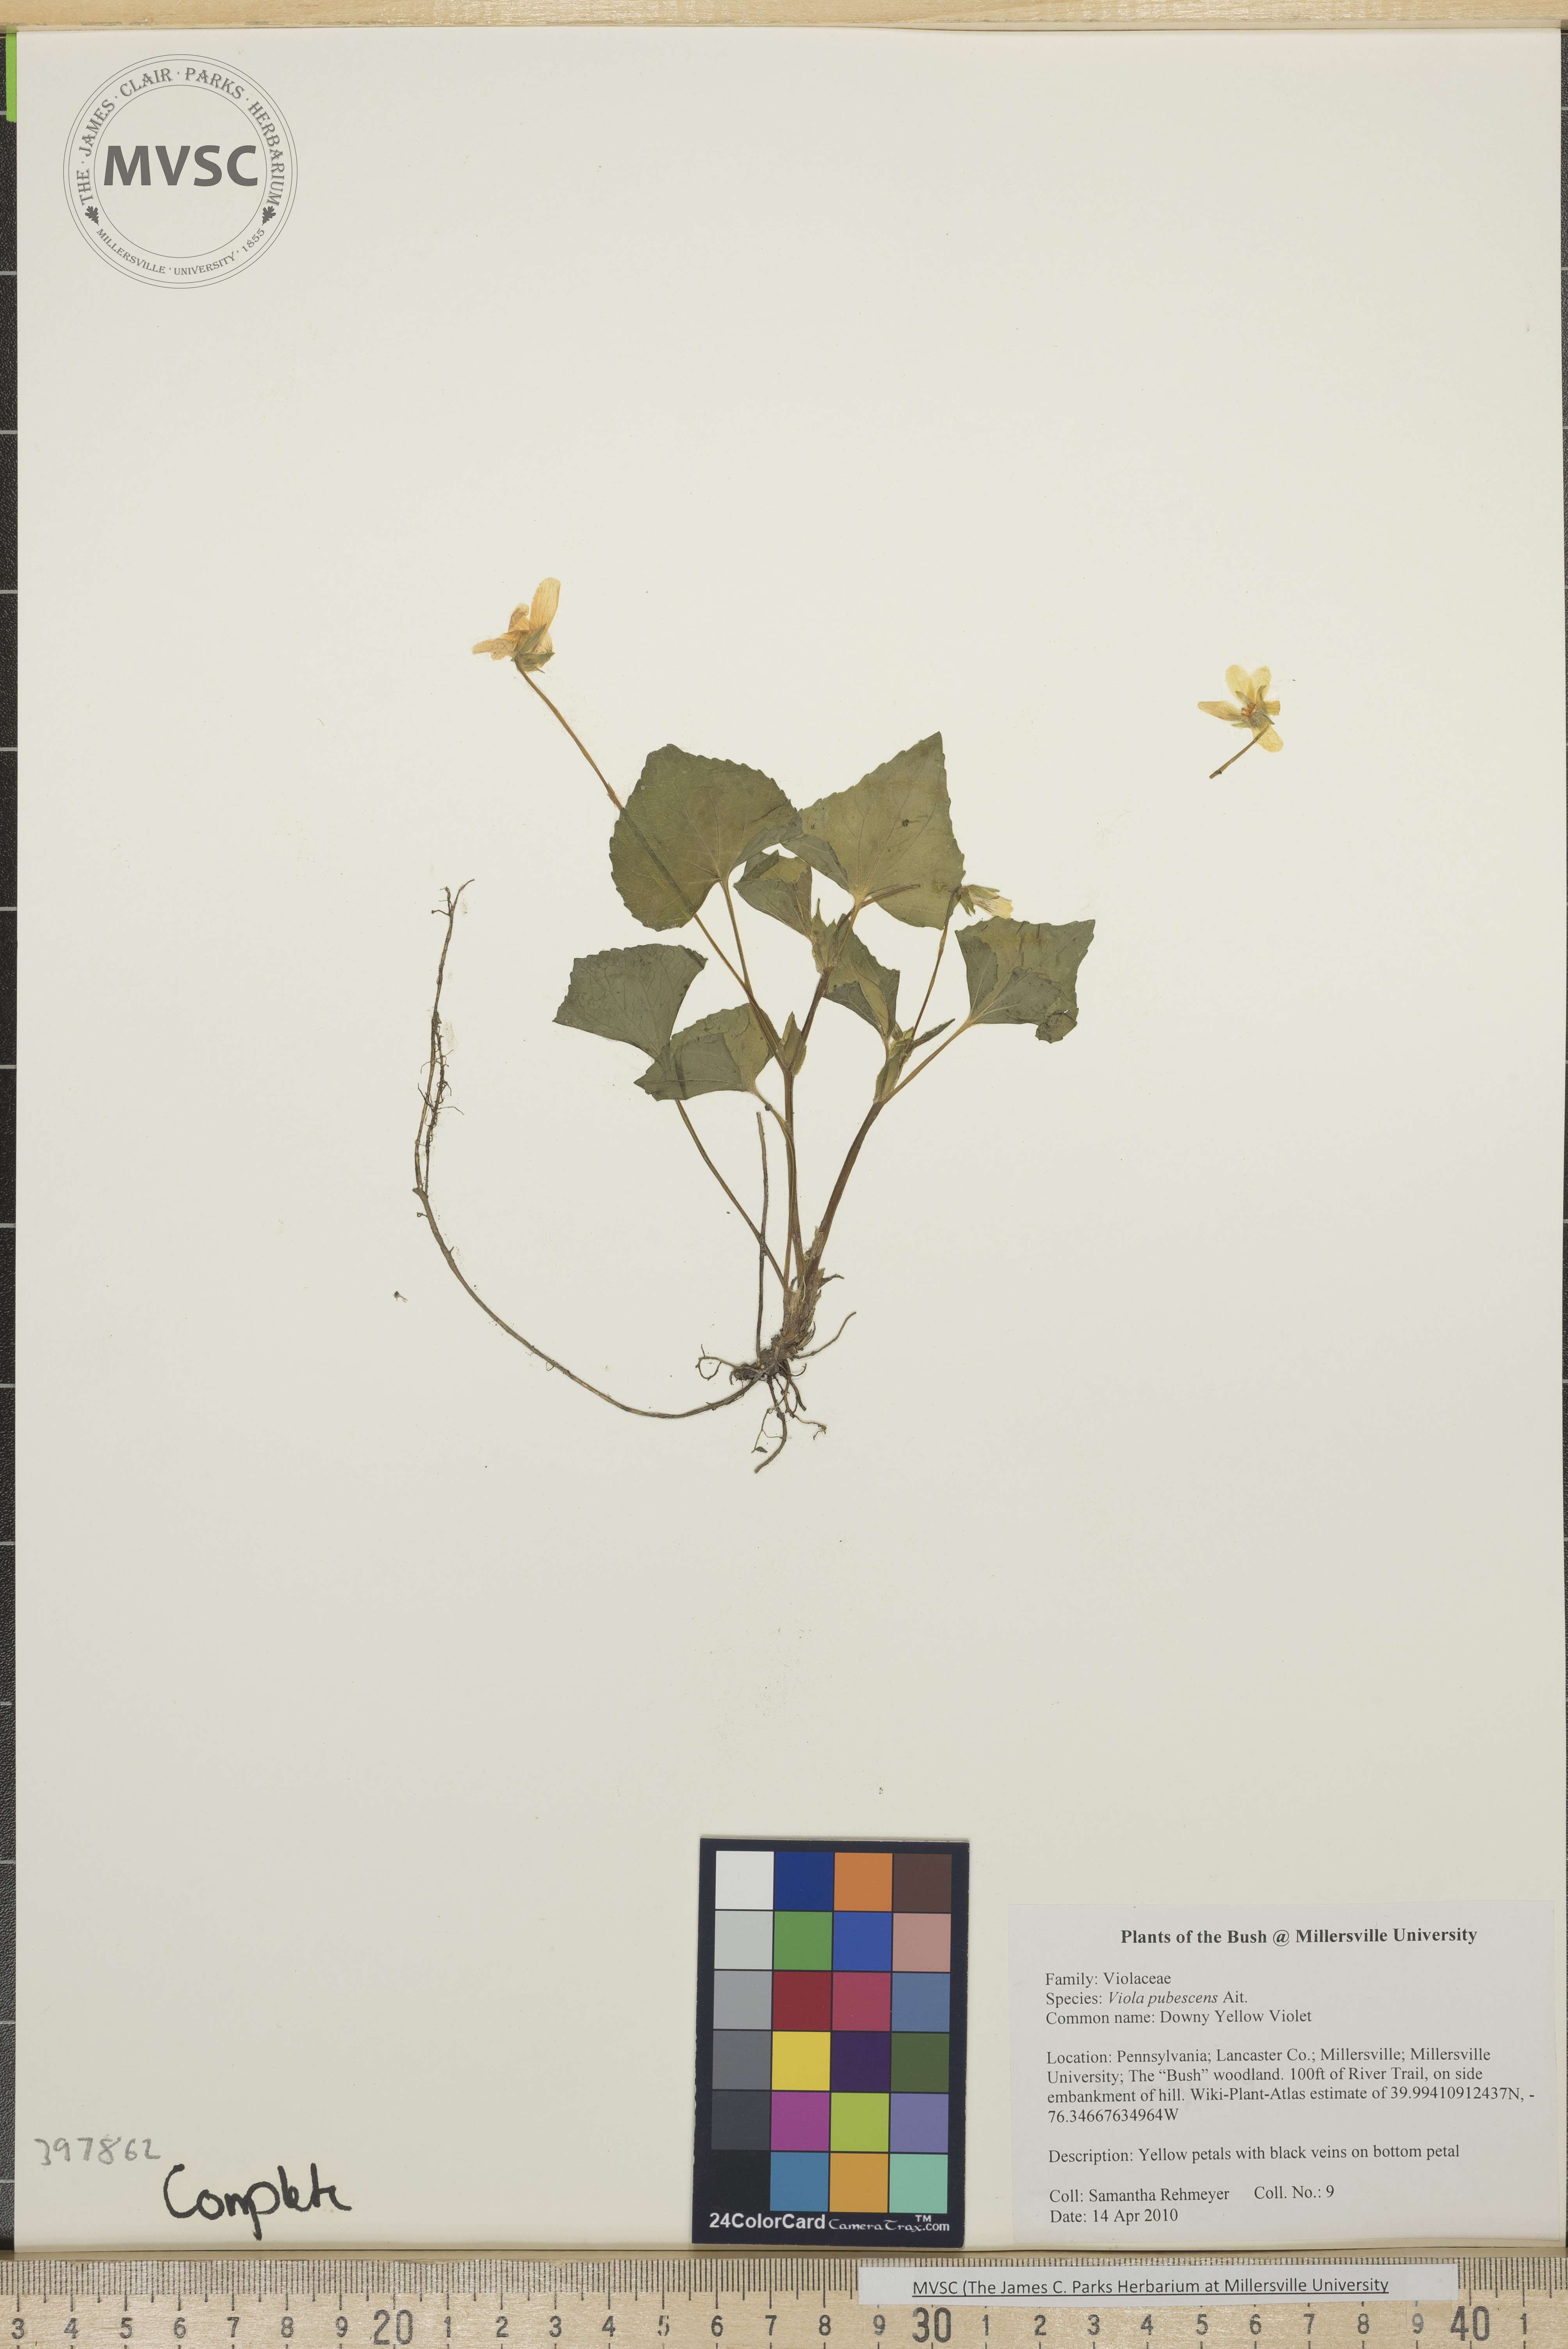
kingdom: Plantae
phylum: Tracheophyta
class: Magnoliopsida
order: Malpighiales
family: Violaceae
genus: Viola
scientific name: Viola pubescens
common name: downy yellow violet
